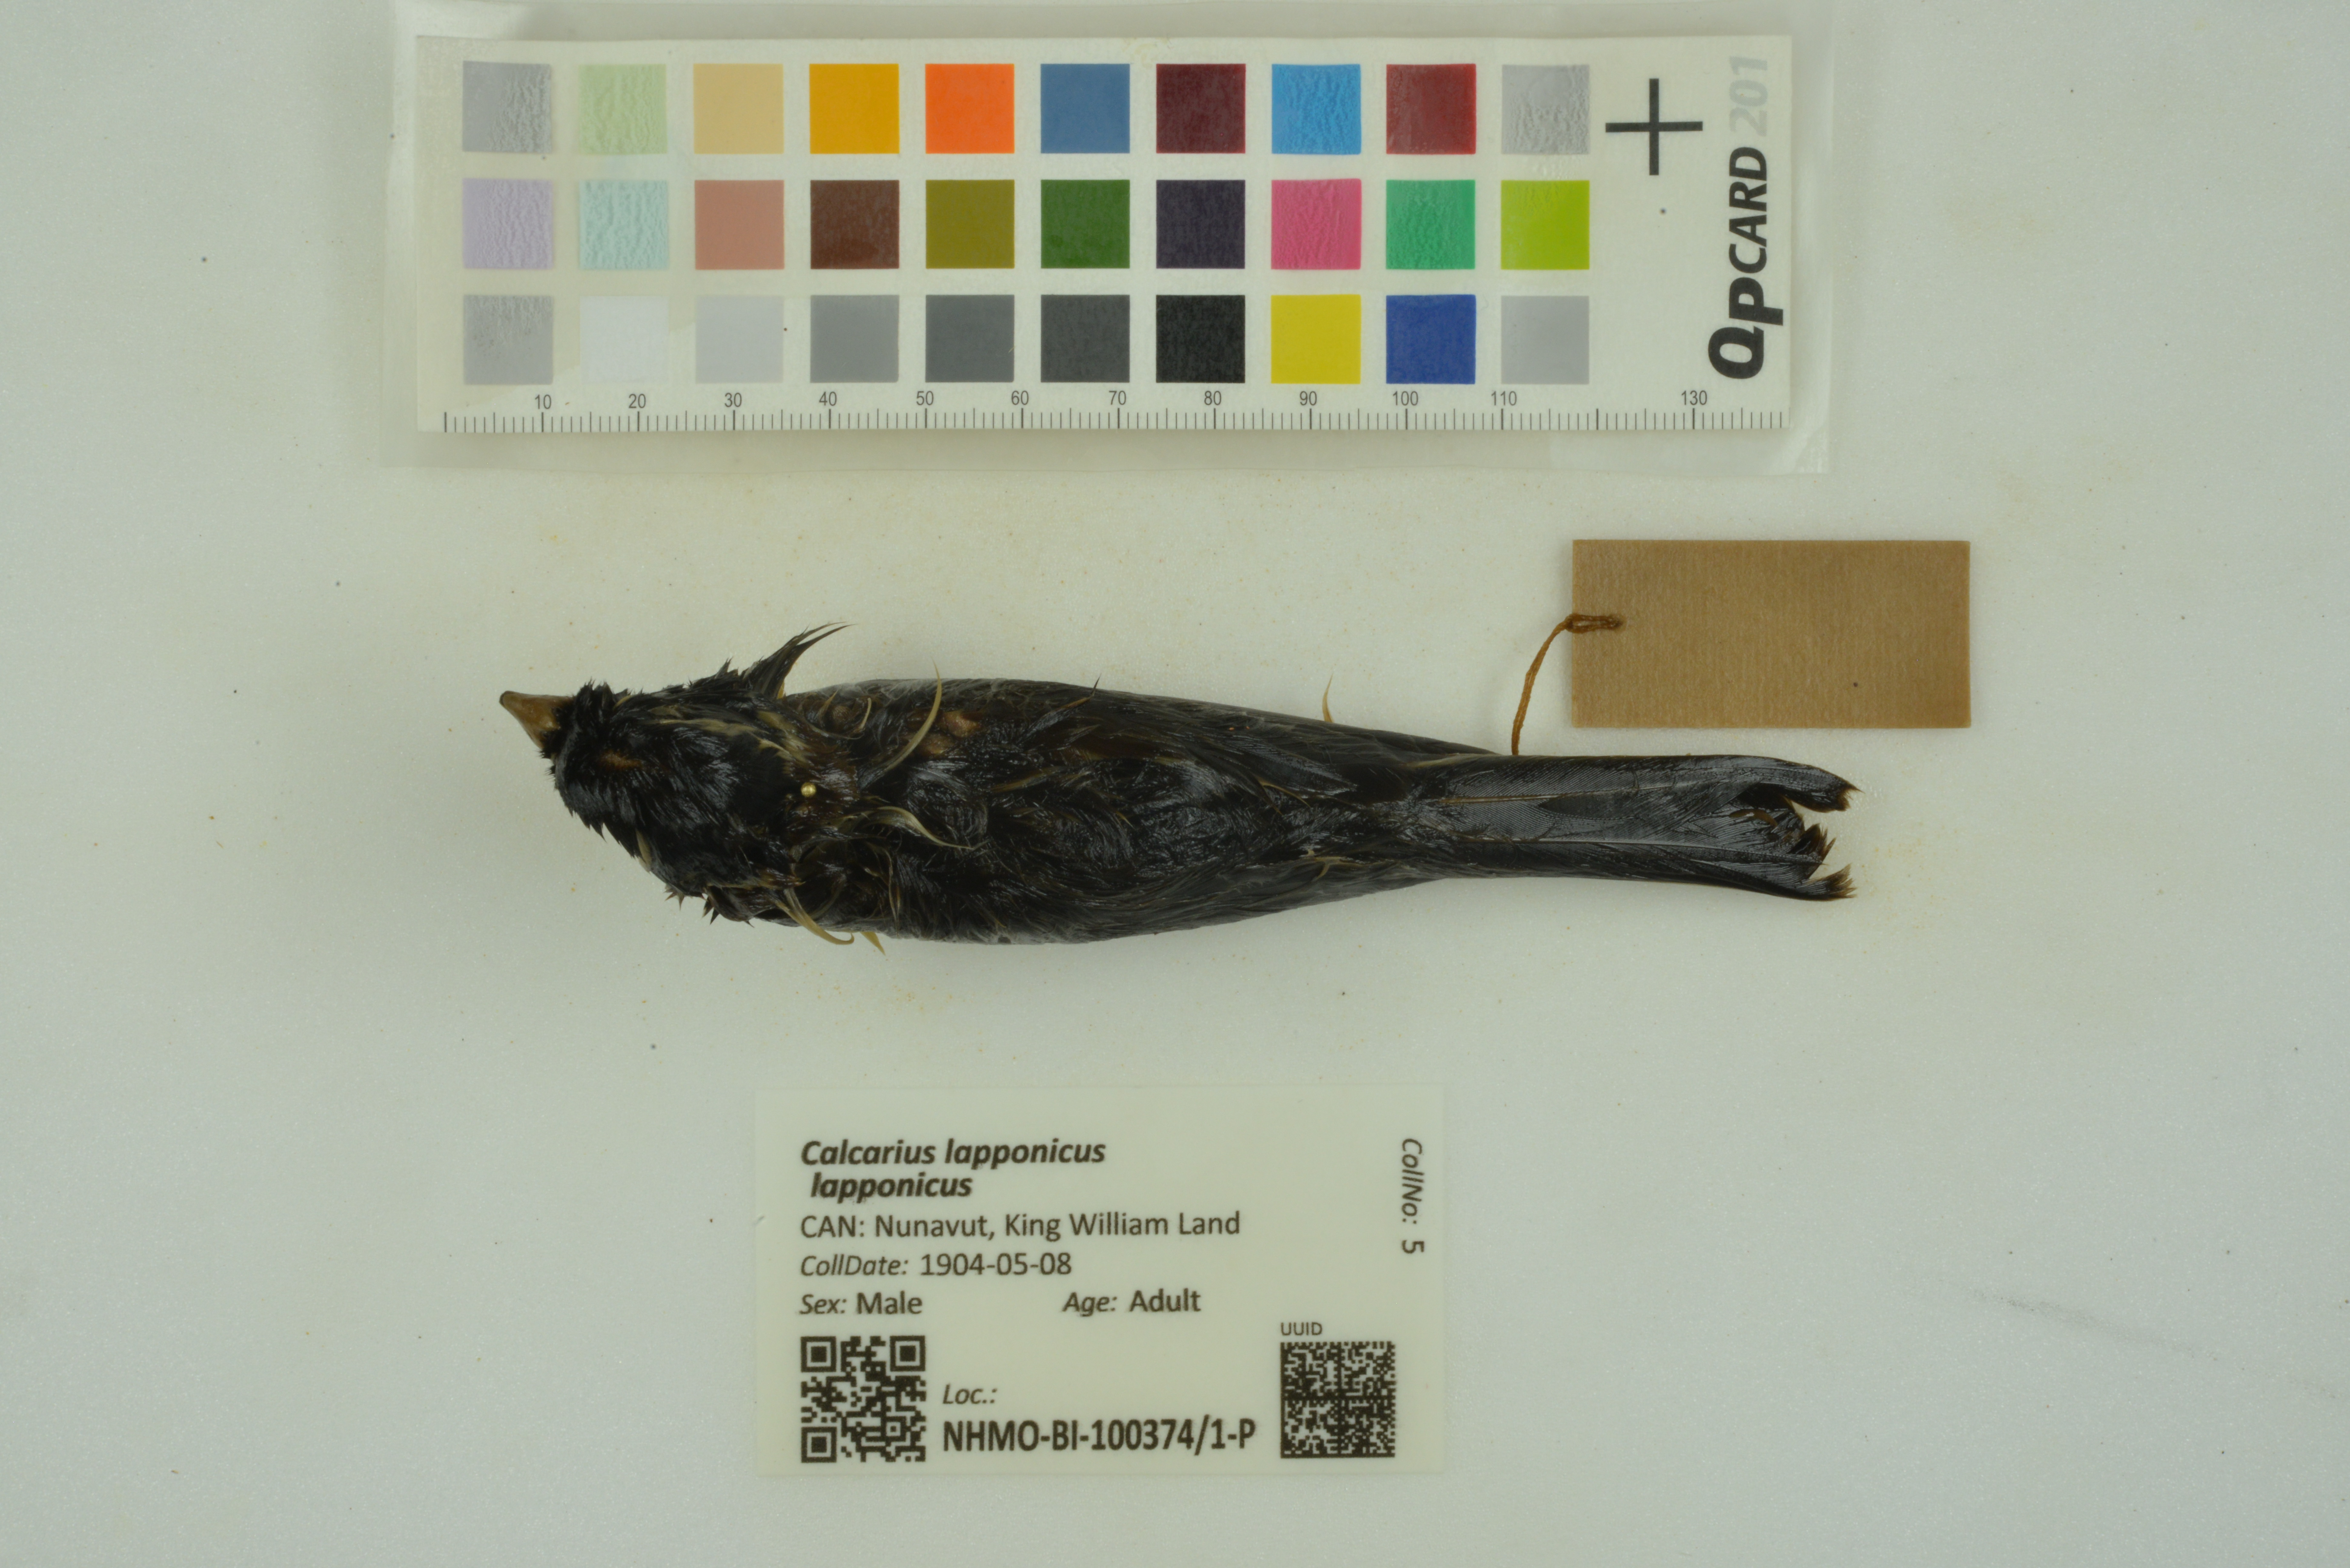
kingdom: Animalia
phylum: Chordata
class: Aves
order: Passeriformes
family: Calcariidae
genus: Calcarius
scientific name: Calcarius lapponicus
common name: Lapland longspur
